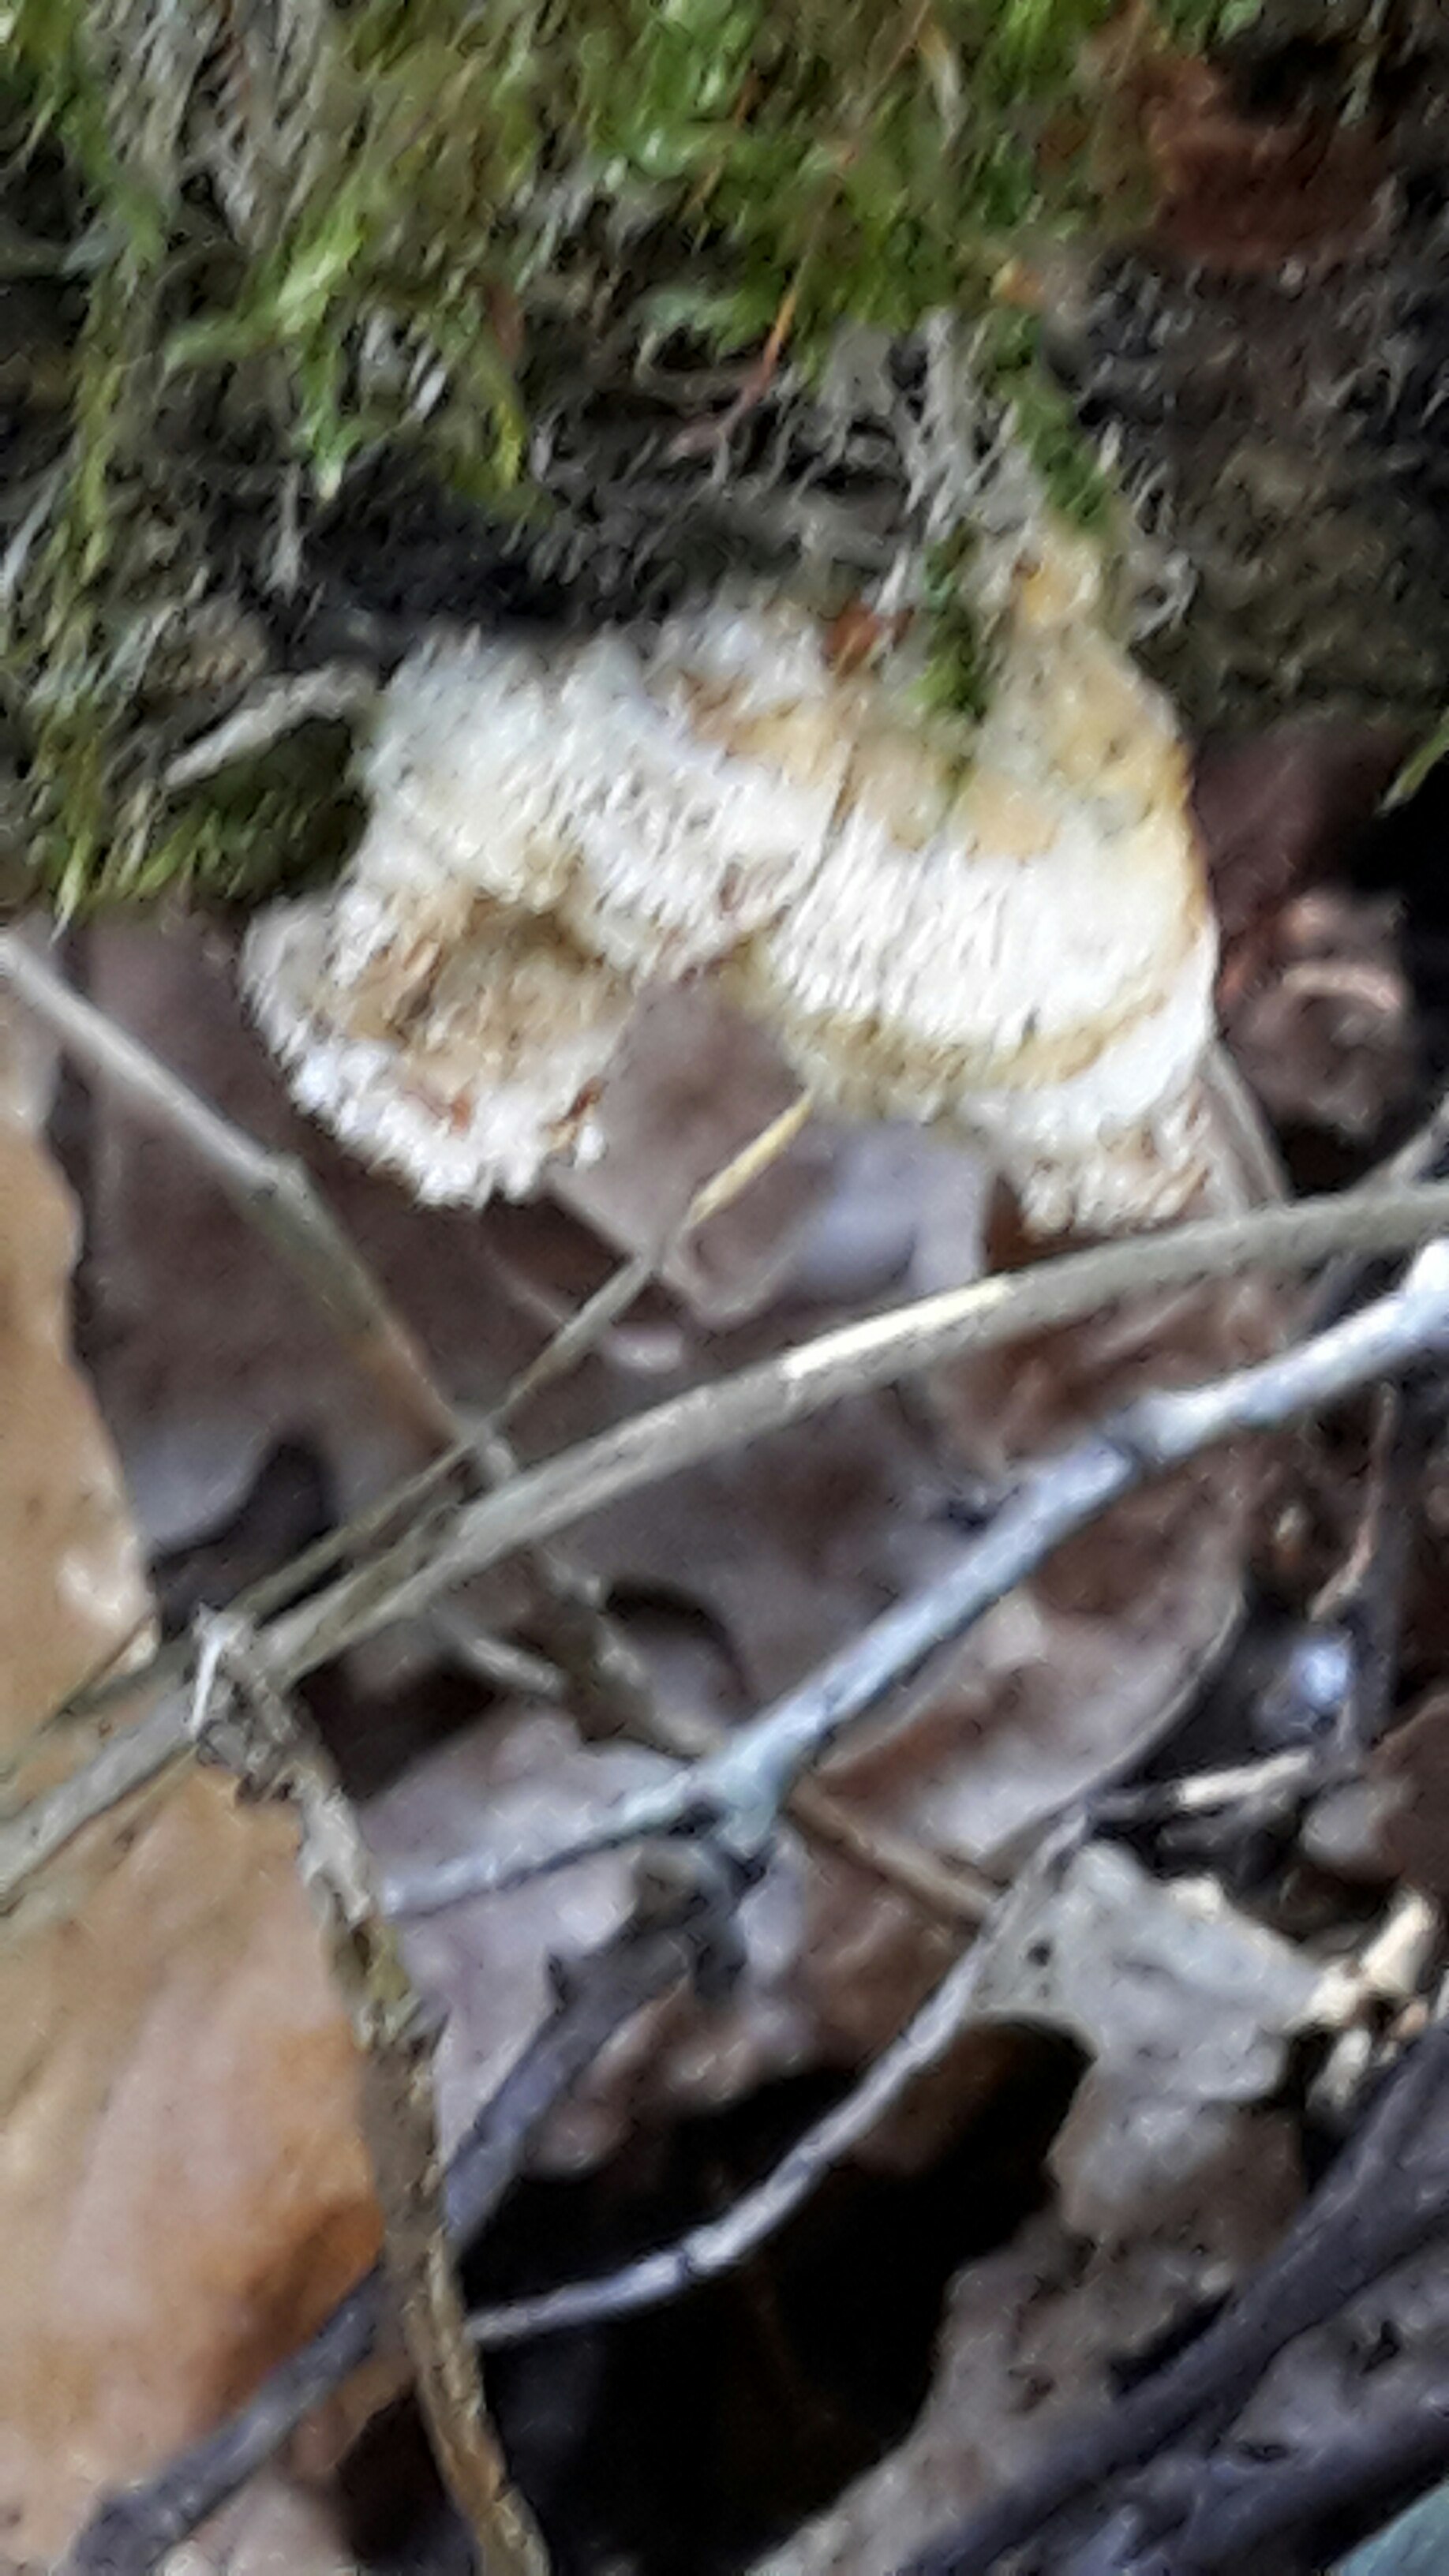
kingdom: Fungi
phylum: Basidiomycota
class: Agaricomycetes
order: Russulales
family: Stereaceae
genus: Stereum
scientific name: Stereum hirsutum
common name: håret lædersvamp
